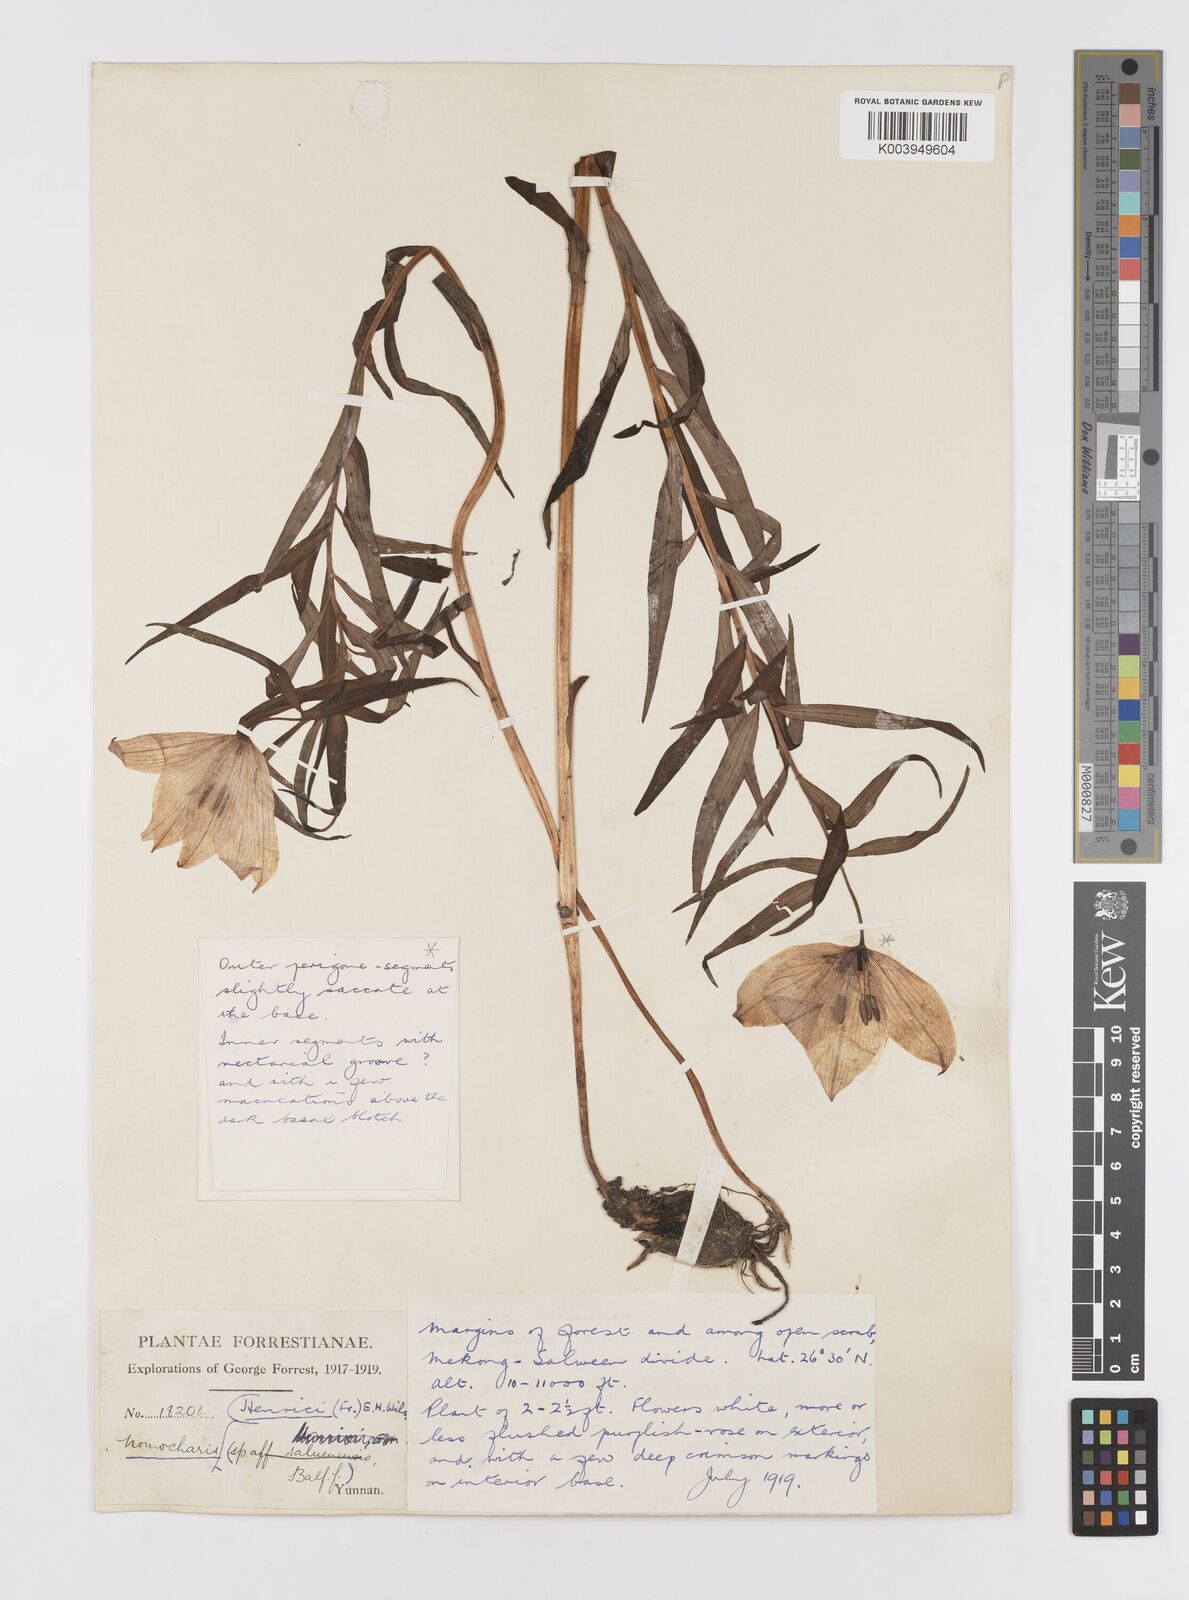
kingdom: Plantae
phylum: Tracheophyta
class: Liliopsida
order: Liliales
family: Liliaceae
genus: Lilium
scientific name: Lilium henrici
